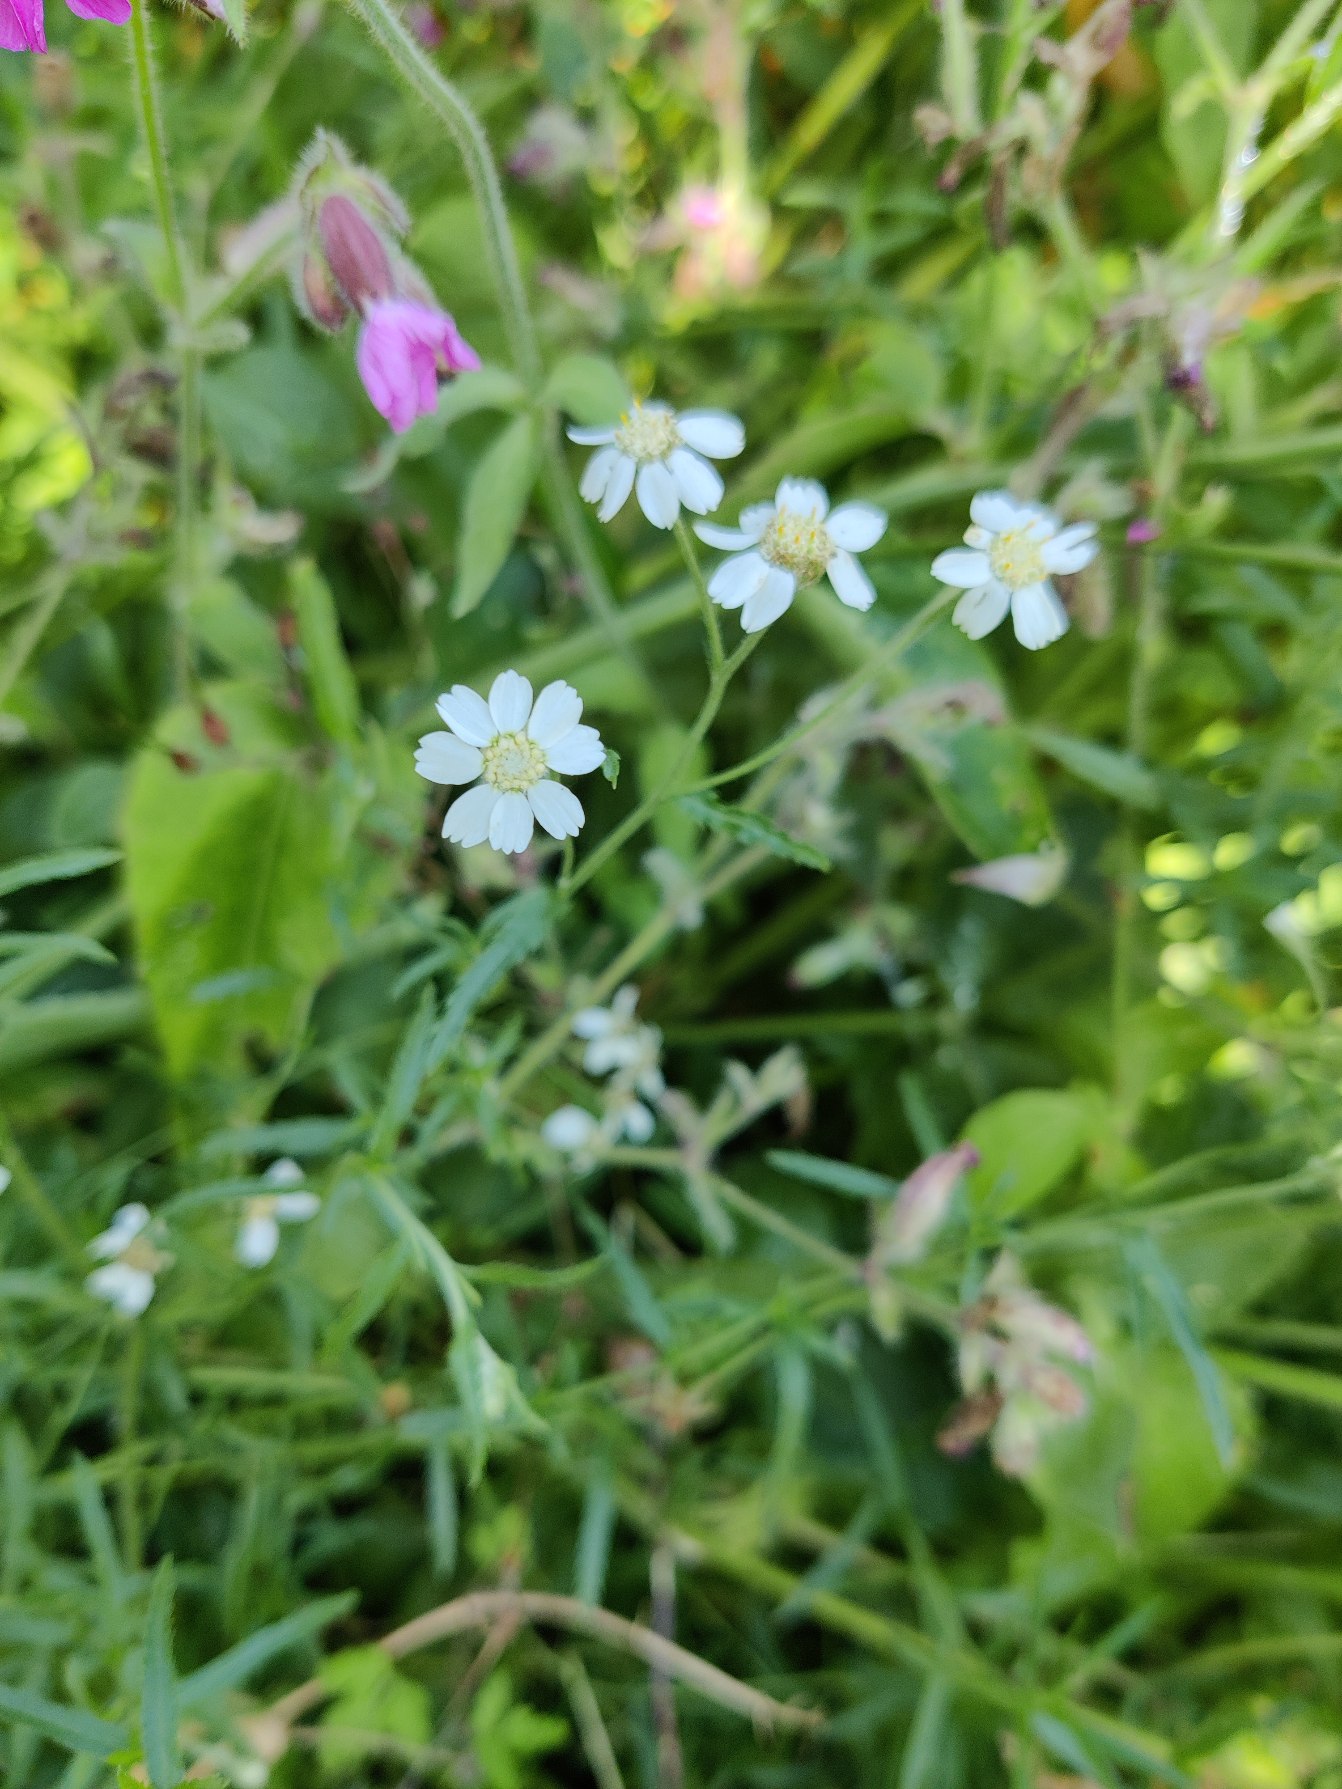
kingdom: Plantae
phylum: Tracheophyta
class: Magnoliopsida
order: Asterales
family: Asteraceae
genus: Achillea
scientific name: Achillea ptarmica
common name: Nyse-røllike
